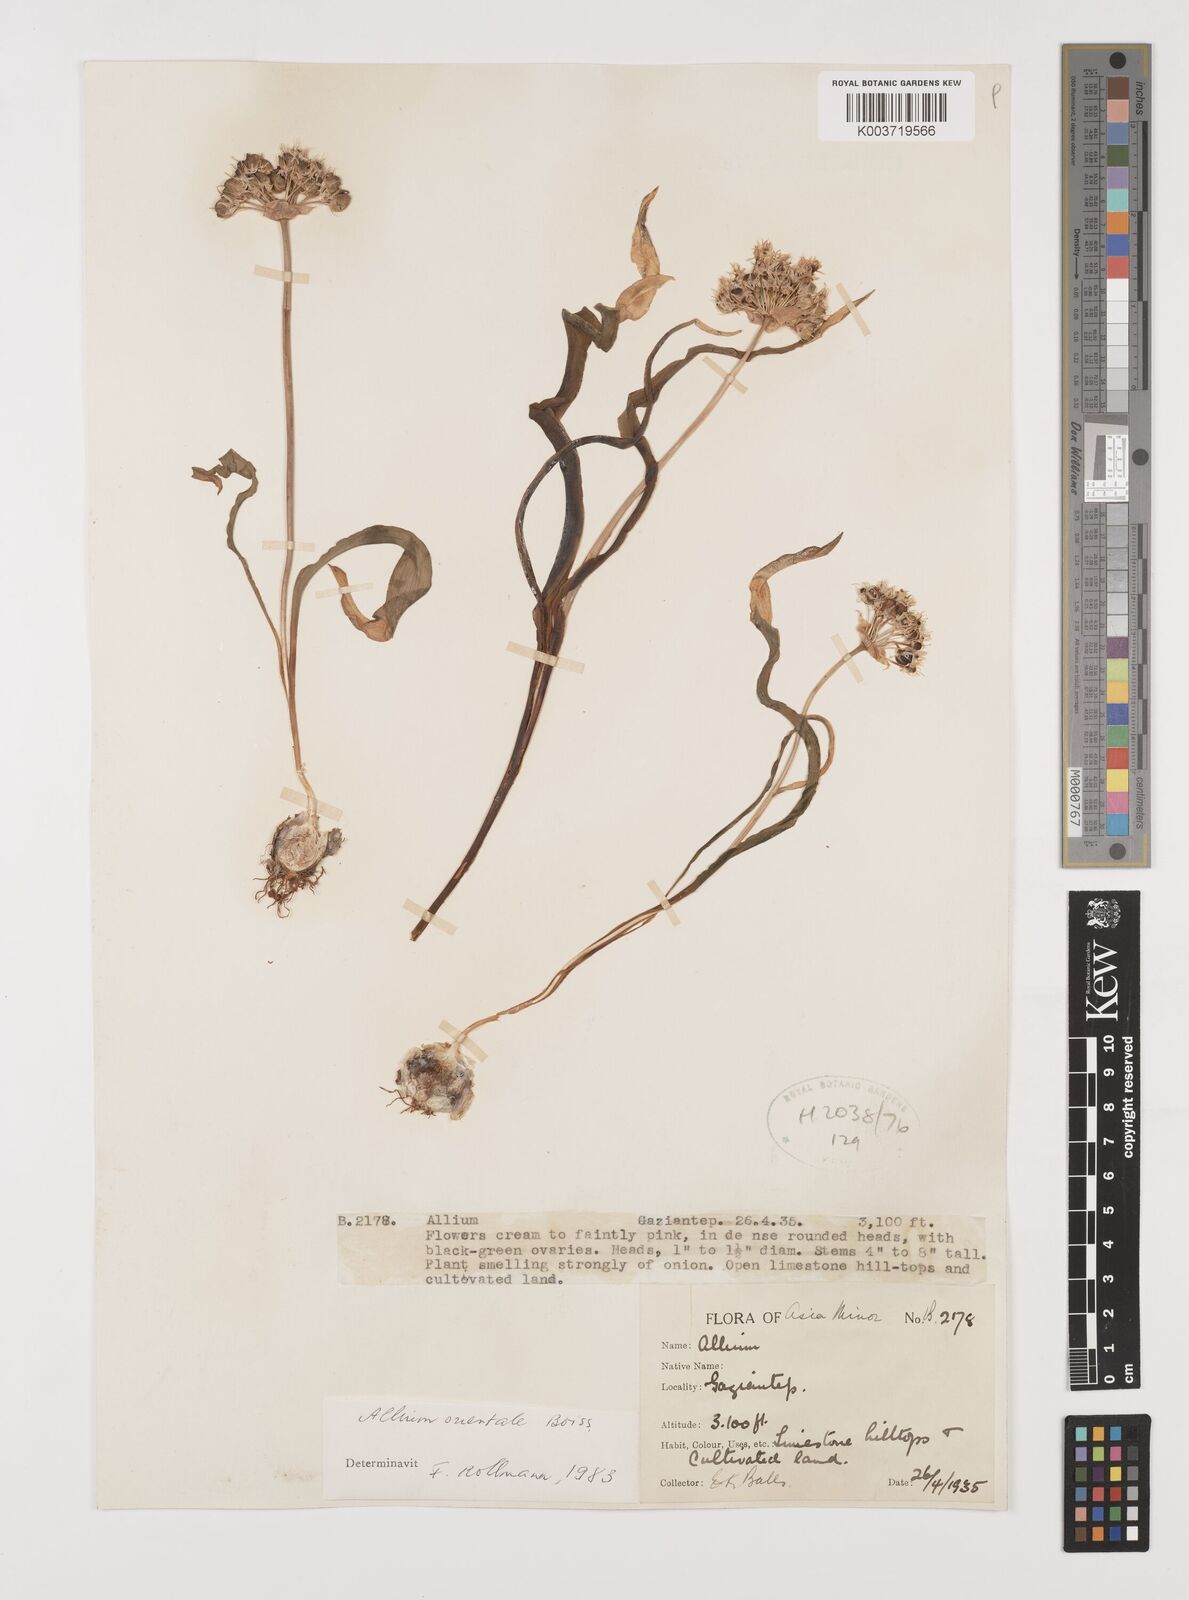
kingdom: Plantae
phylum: Tracheophyta
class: Liliopsida
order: Asparagales
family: Amaryllidaceae
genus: Allium
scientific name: Allium orientale
